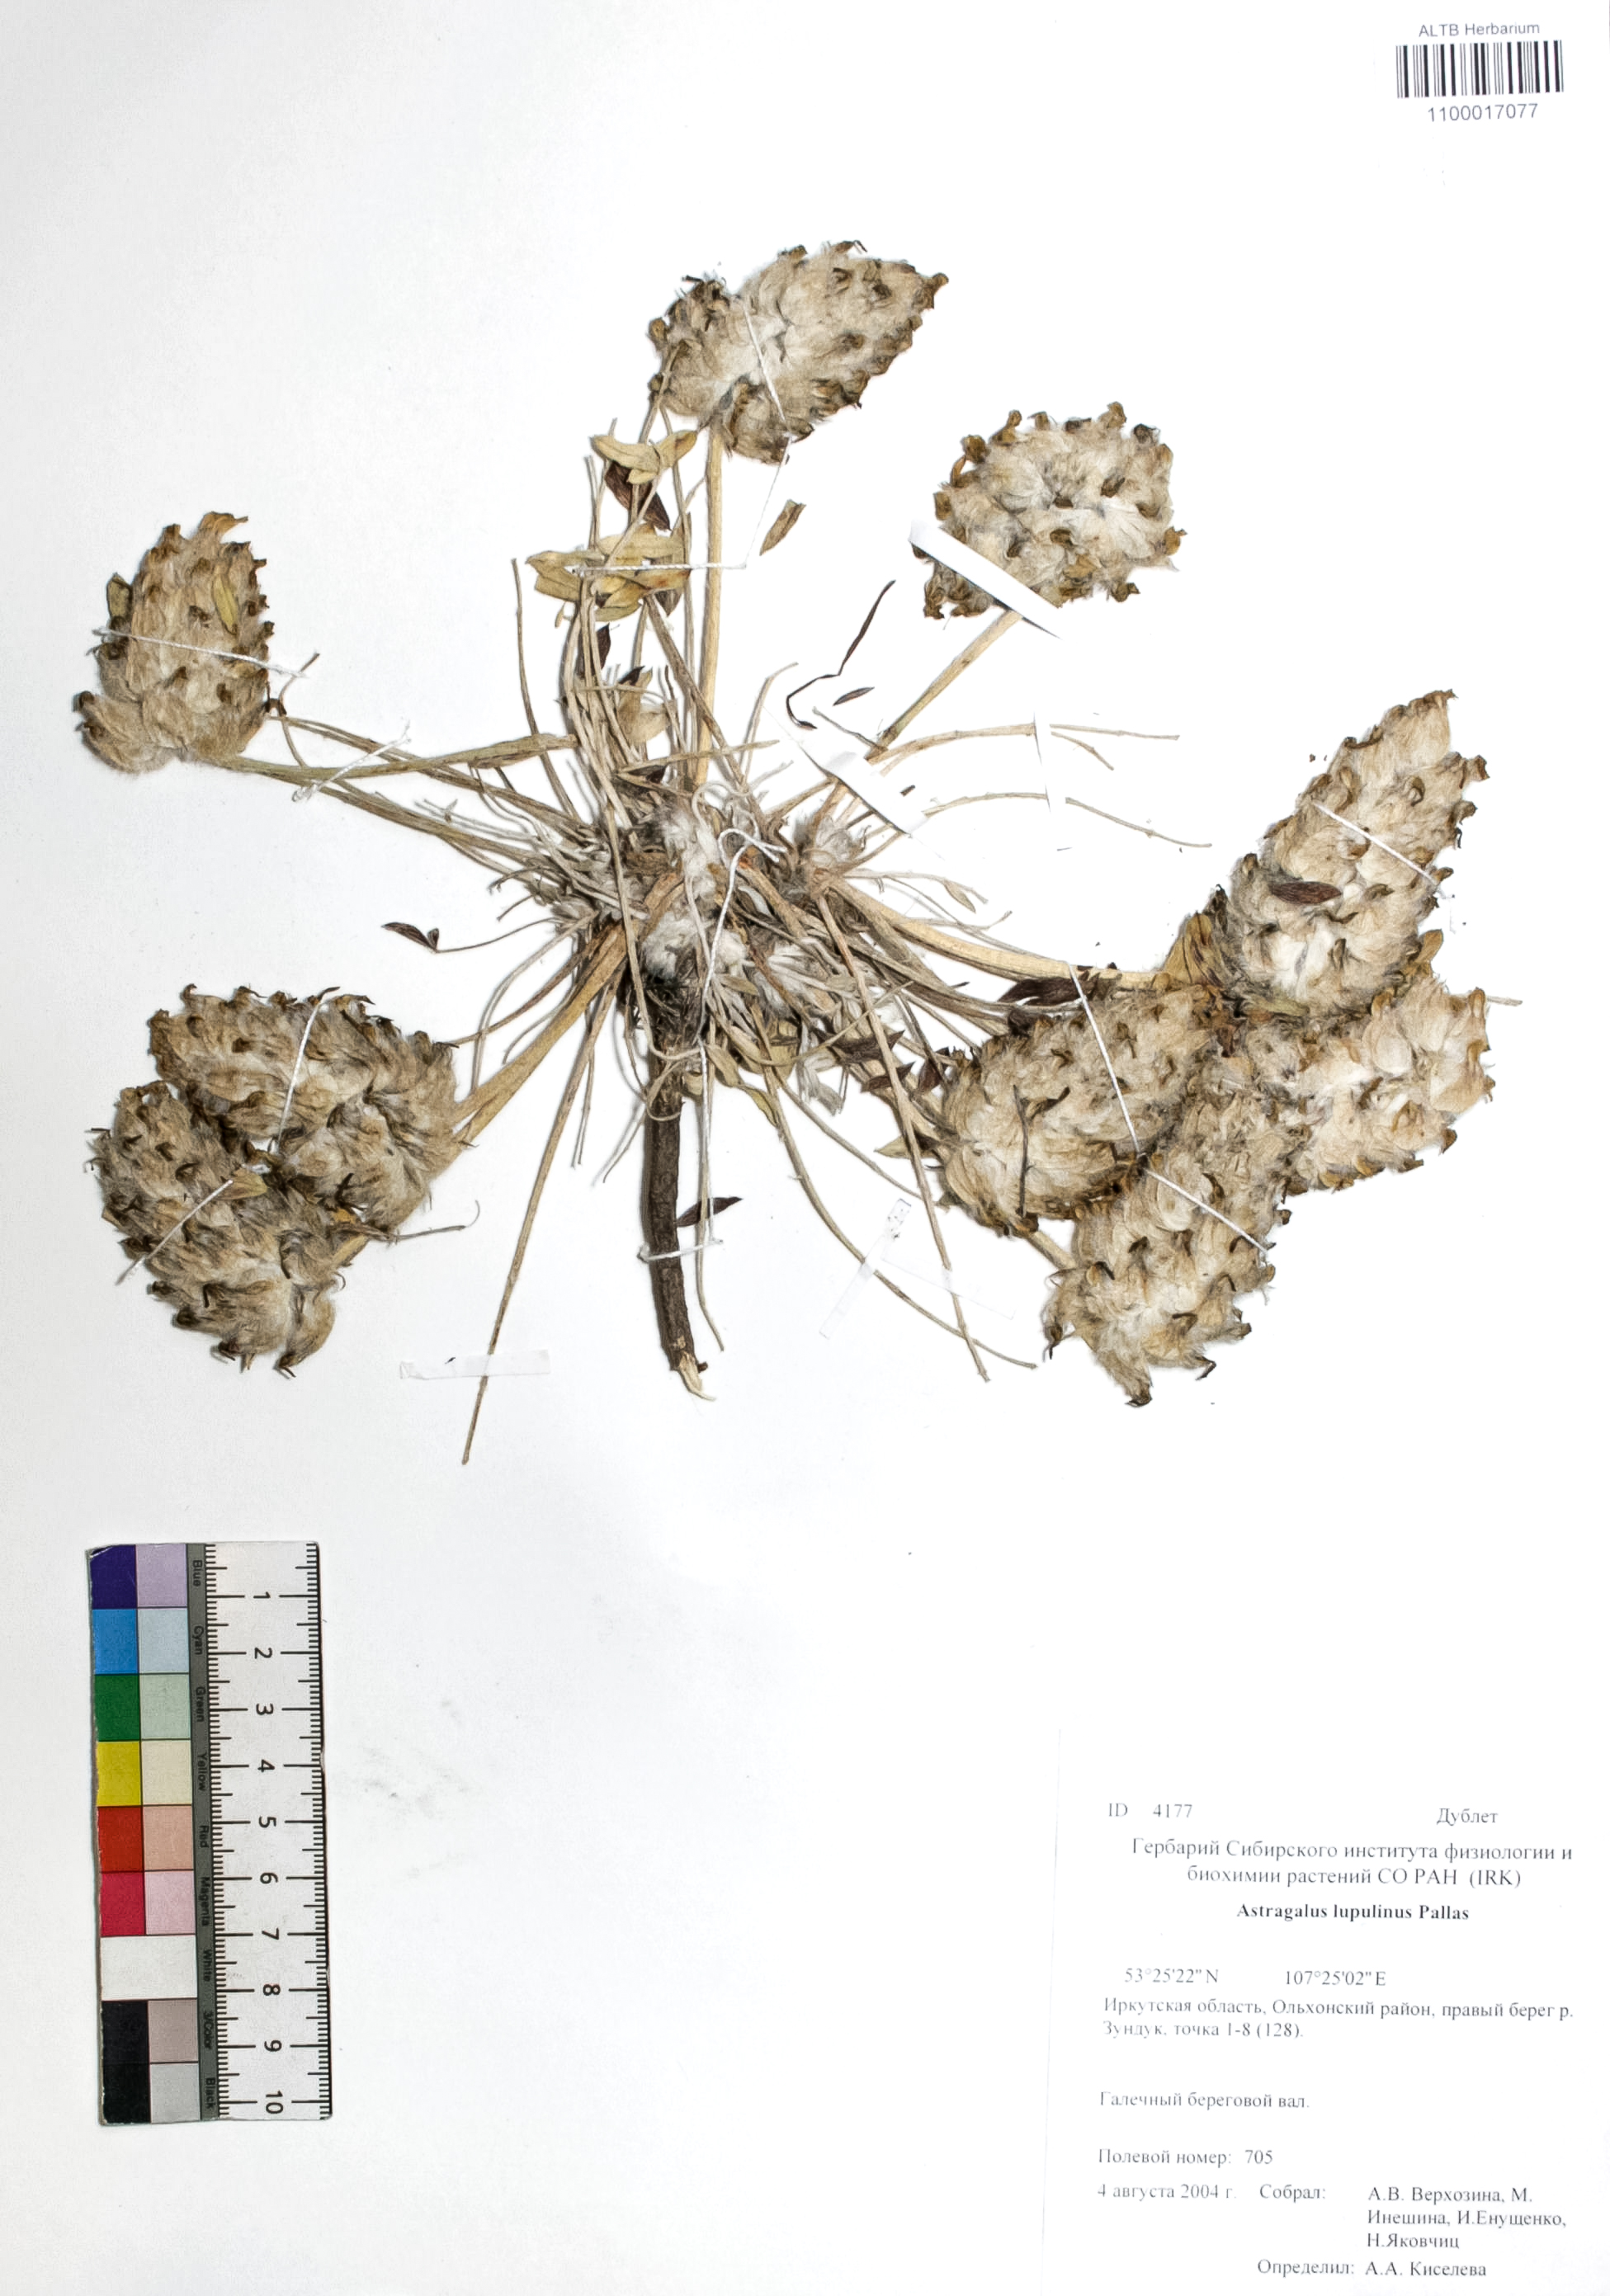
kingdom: Plantae
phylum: Tracheophyta
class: Magnoliopsida
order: Fabales
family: Fabaceae
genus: Astragalus
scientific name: Astragalus lupulinus
